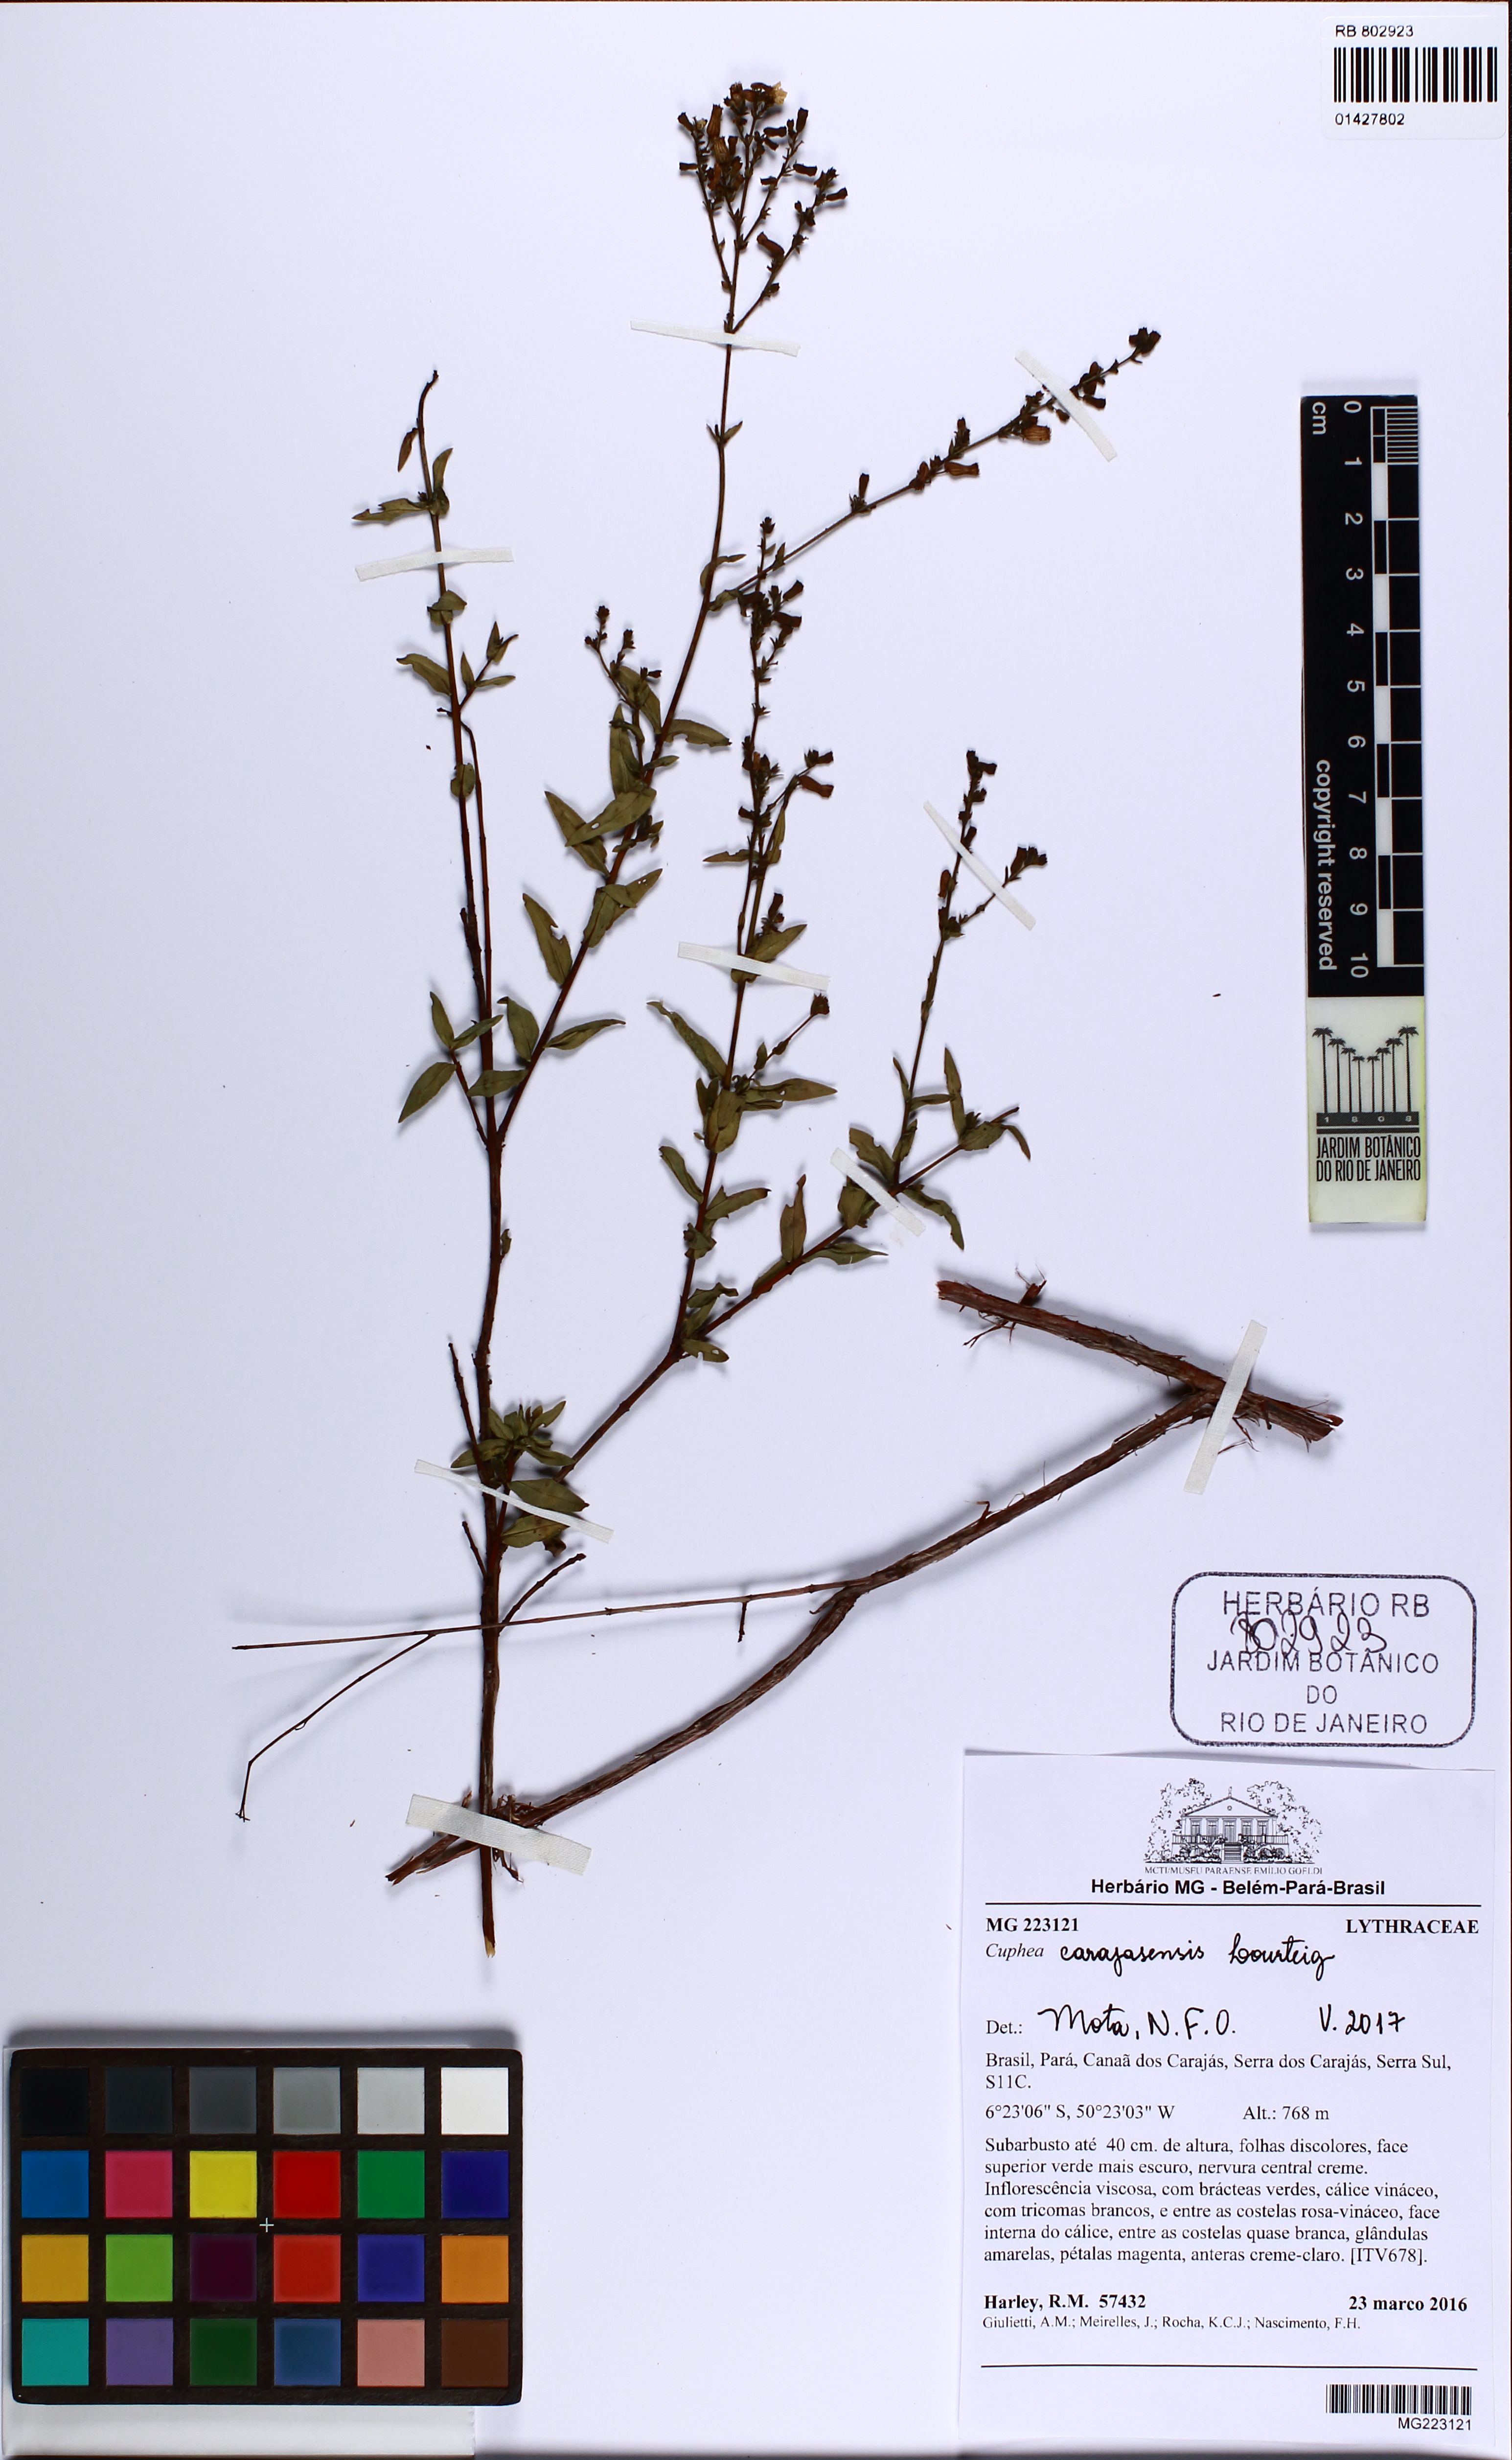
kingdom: Plantae
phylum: Tracheophyta
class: Magnoliopsida
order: Myrtales
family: Lythraceae
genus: Cuphea
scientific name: Cuphea carajasensis
